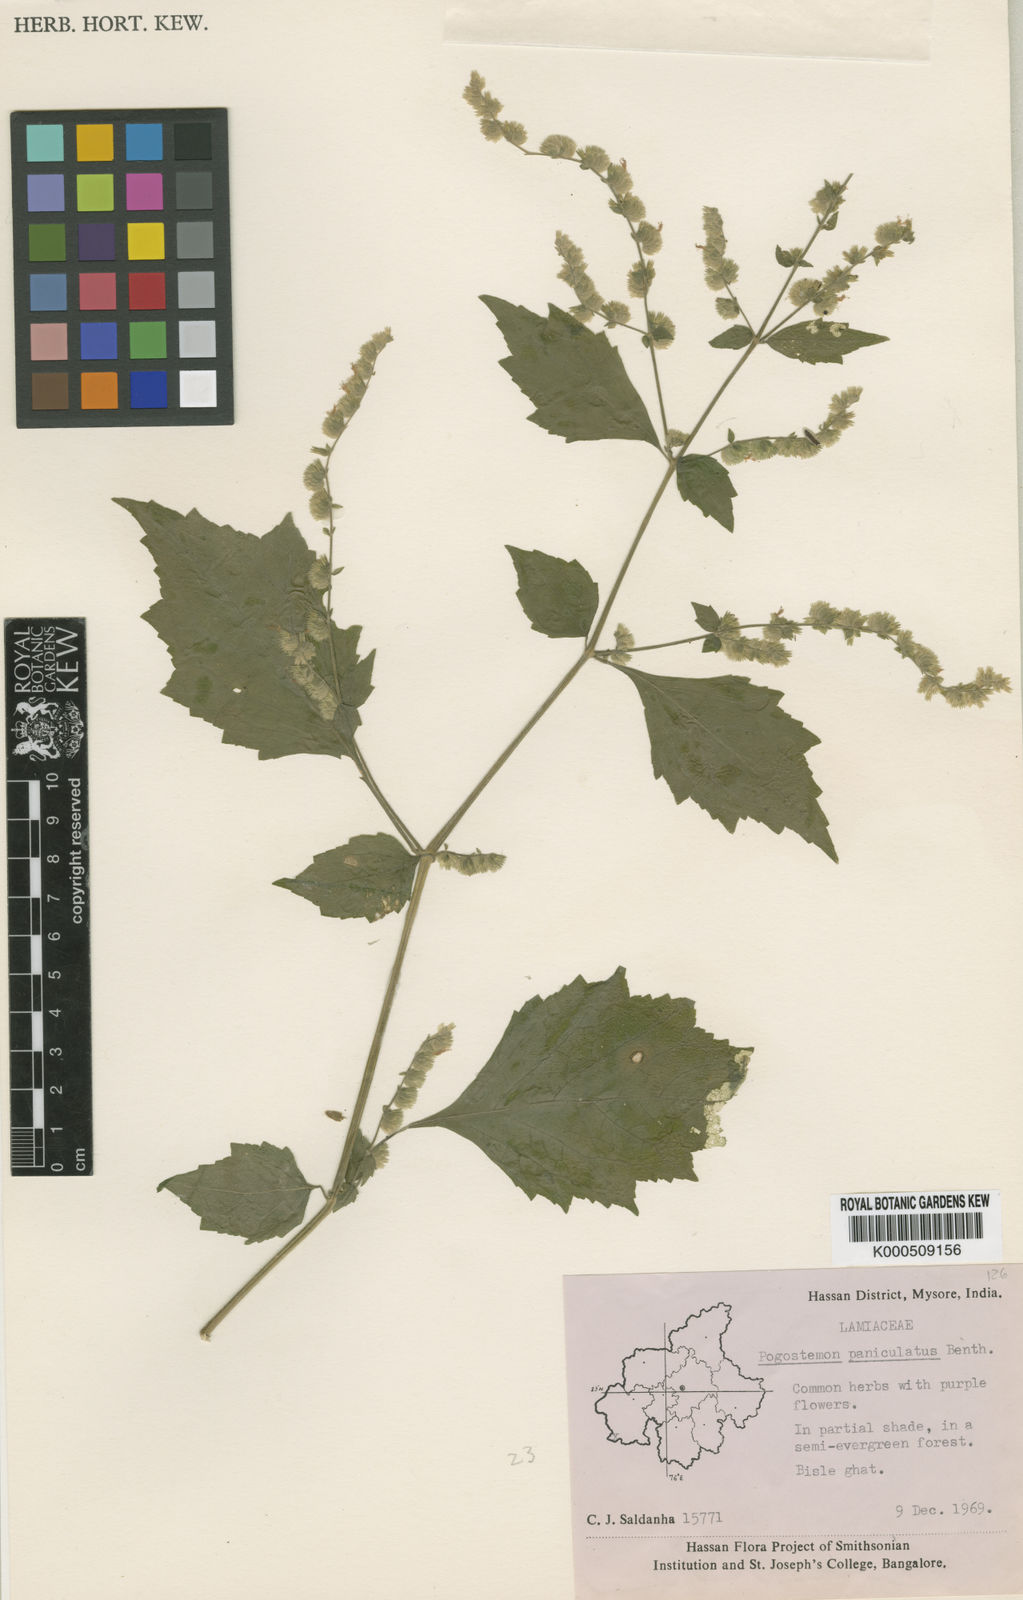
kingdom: Plantae
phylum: Tracheophyta
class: Magnoliopsida
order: Lamiales
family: Lamiaceae
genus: Pogostemon
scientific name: Pogostemon paniculatus
